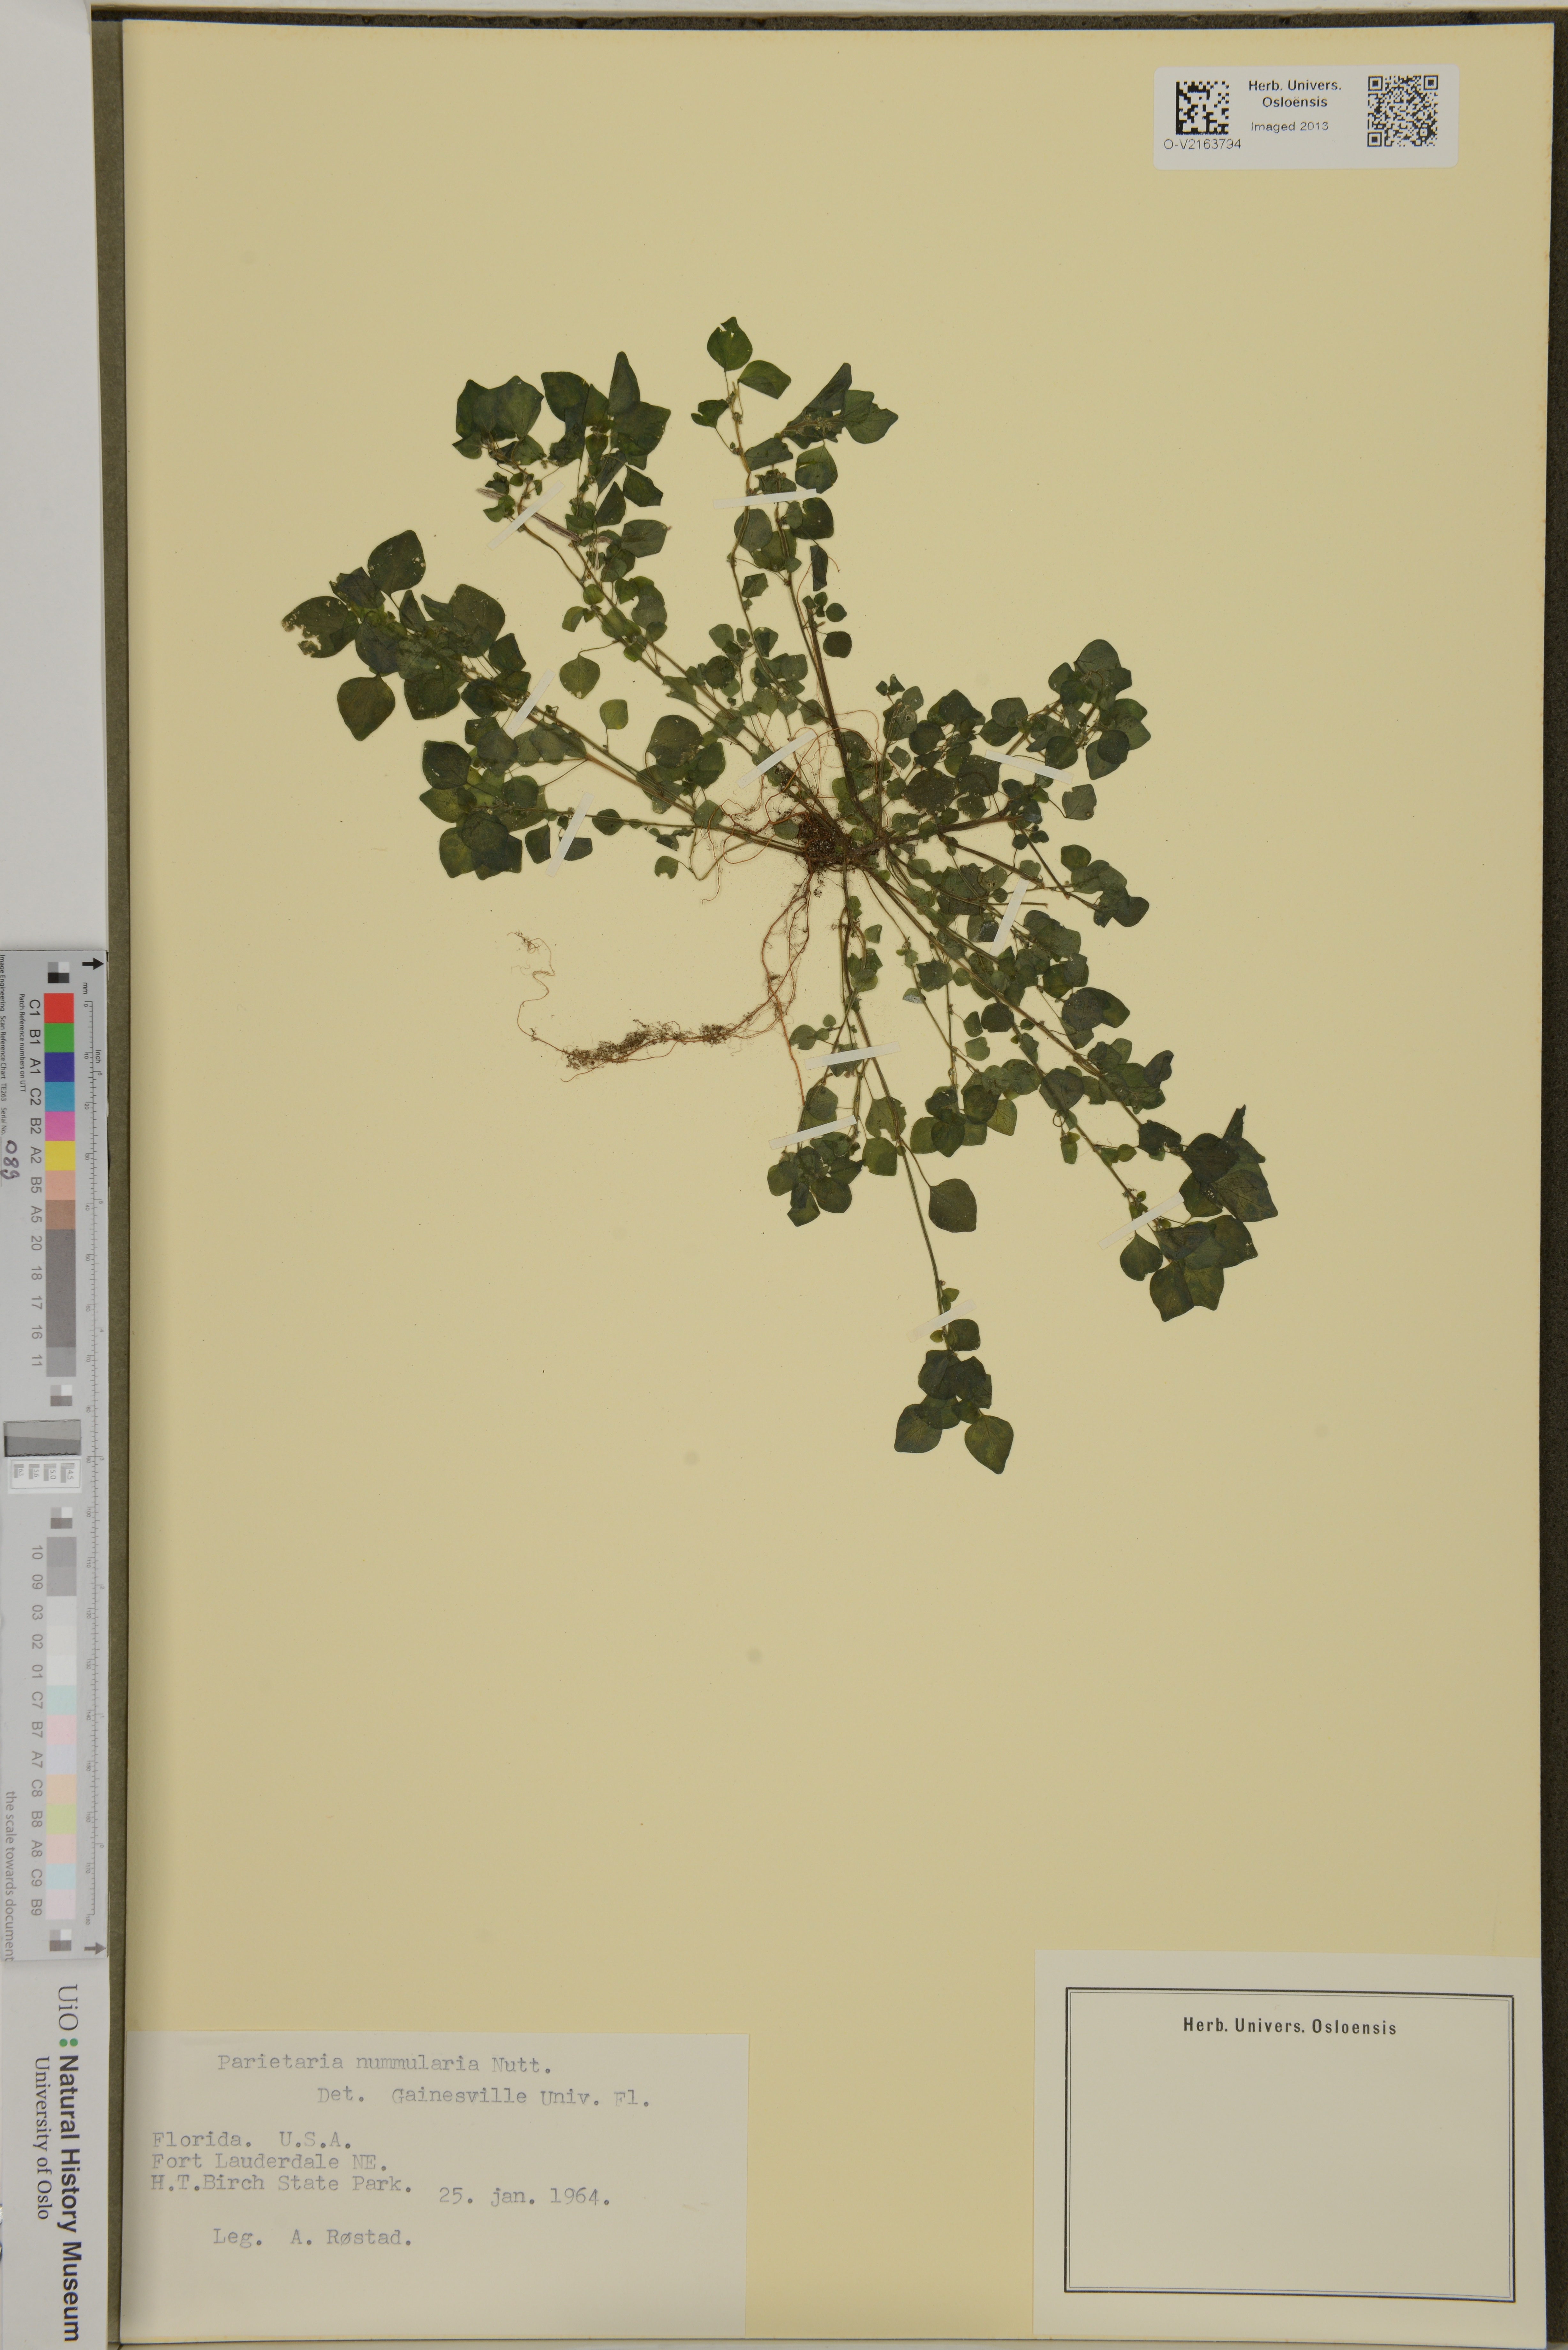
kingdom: Plantae
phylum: Tracheophyta
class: Magnoliopsida
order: Rosales
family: Urticaceae
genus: Parietaria
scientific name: Parietaria floridana
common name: Florida pellitory
